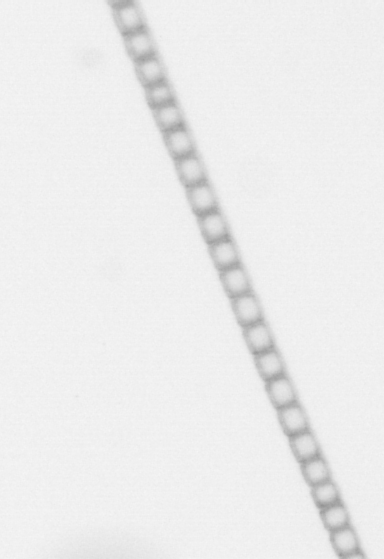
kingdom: Chromista
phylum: Ochrophyta
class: Bacillariophyceae
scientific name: Bacillariophyceae
